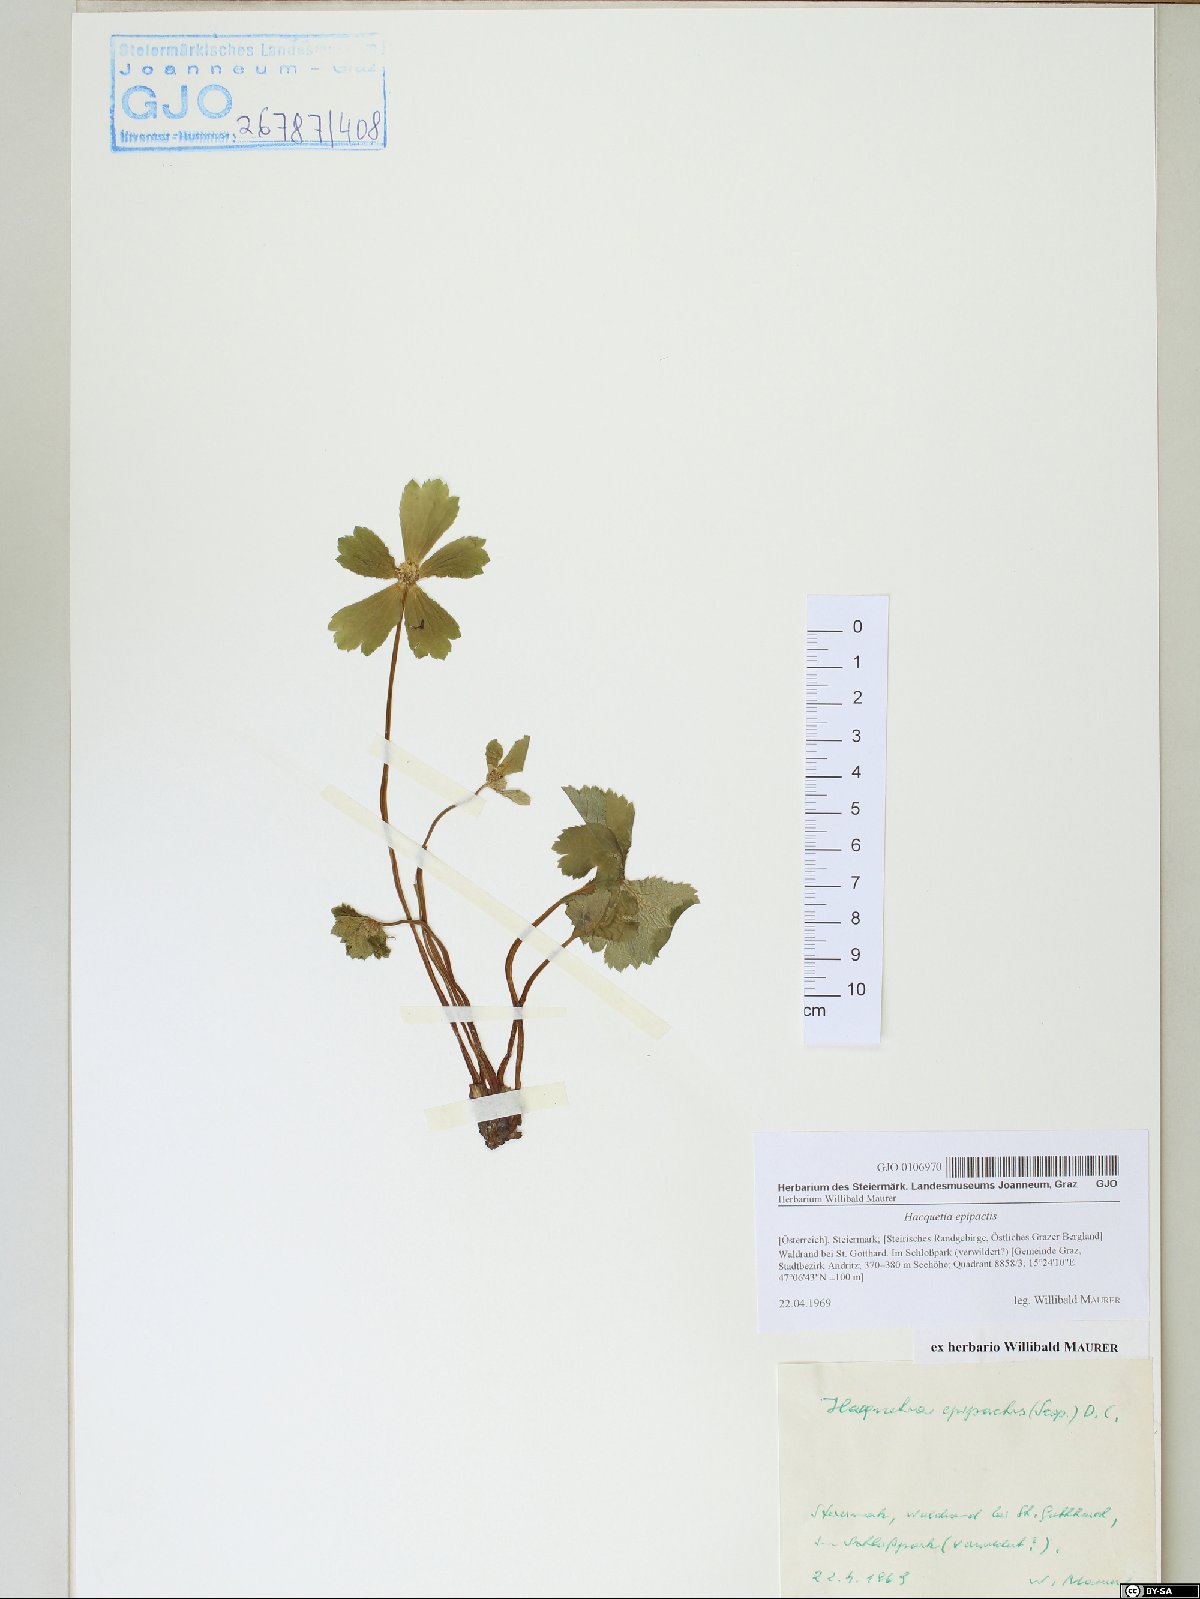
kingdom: Plantae
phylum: Tracheophyta
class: Magnoliopsida
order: Apiales
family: Apiaceae
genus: Sanicula
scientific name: Sanicula epipactis
